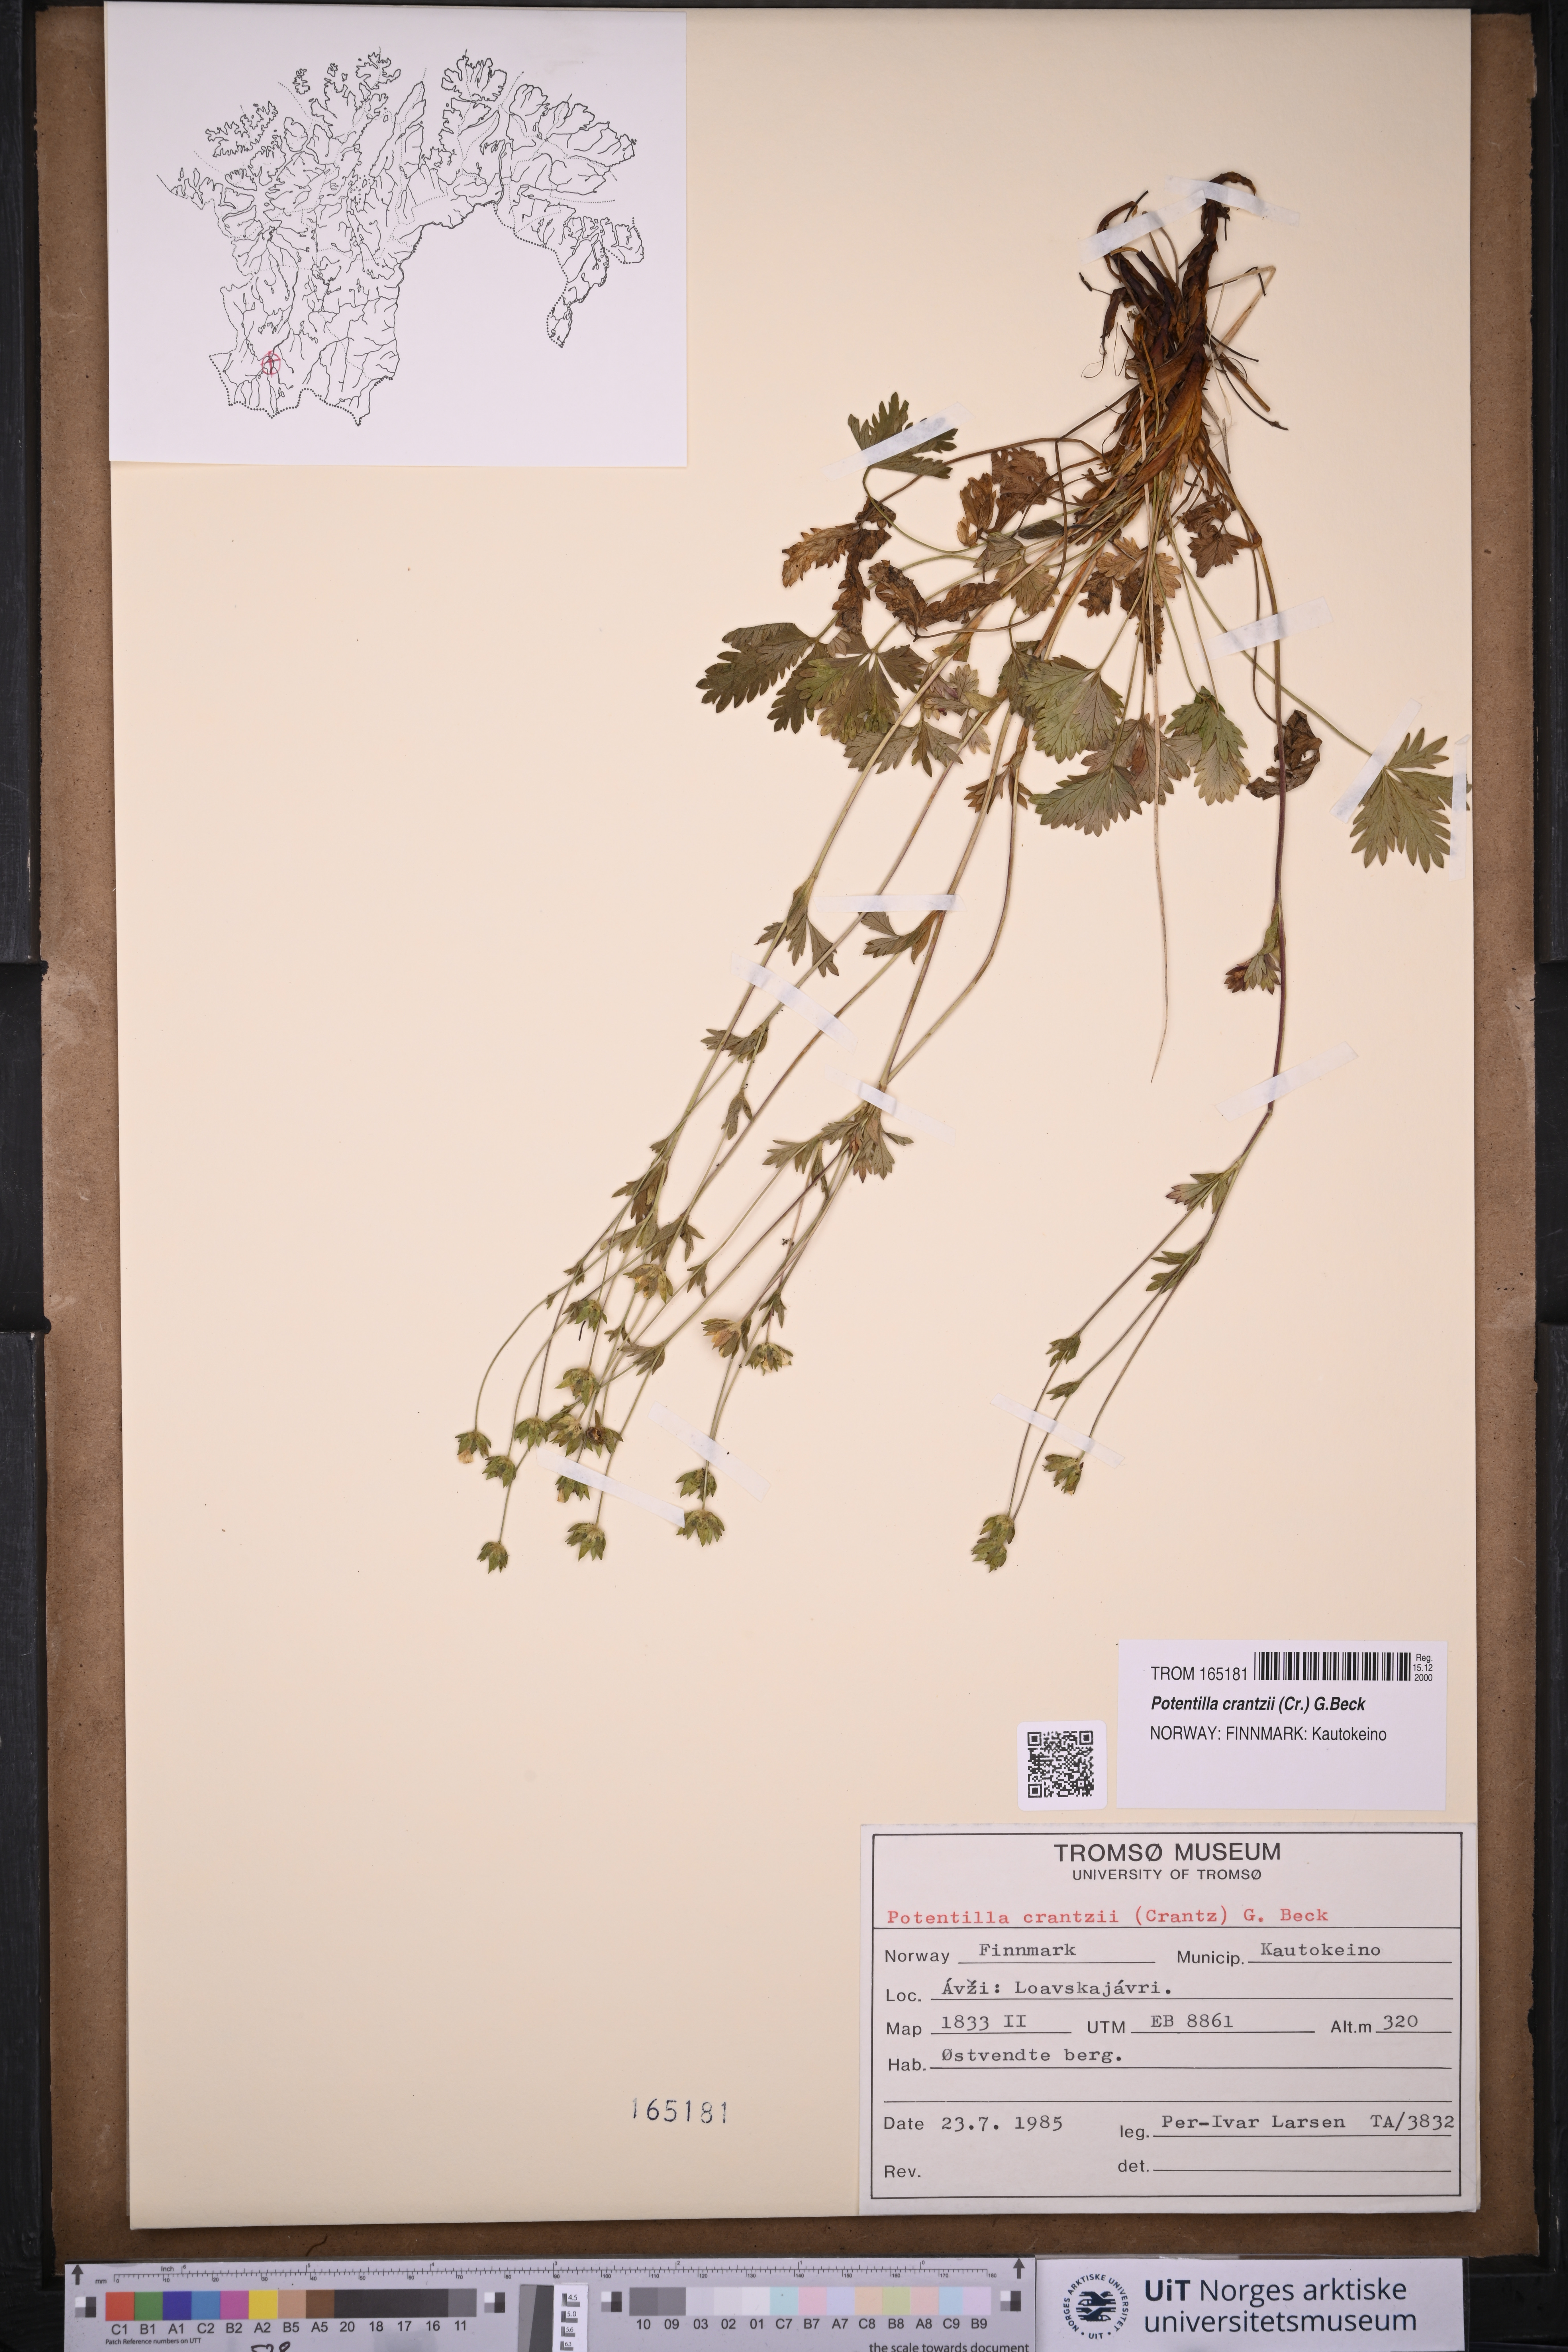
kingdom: Plantae
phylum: Tracheophyta
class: Magnoliopsida
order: Rosales
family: Rosaceae
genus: Potentilla
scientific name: Potentilla crantzii
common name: Alpine cinquefoil
